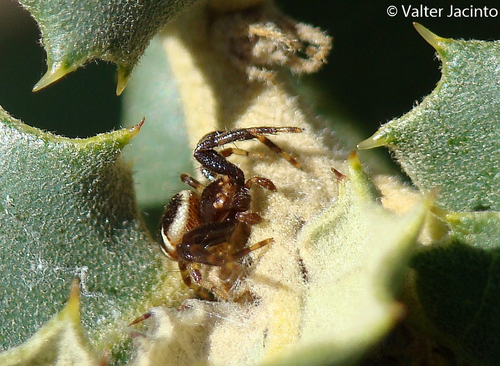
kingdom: Animalia
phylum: Arthropoda
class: Arachnida
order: Araneae
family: Thomisidae
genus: Synema
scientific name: Synema globosum
